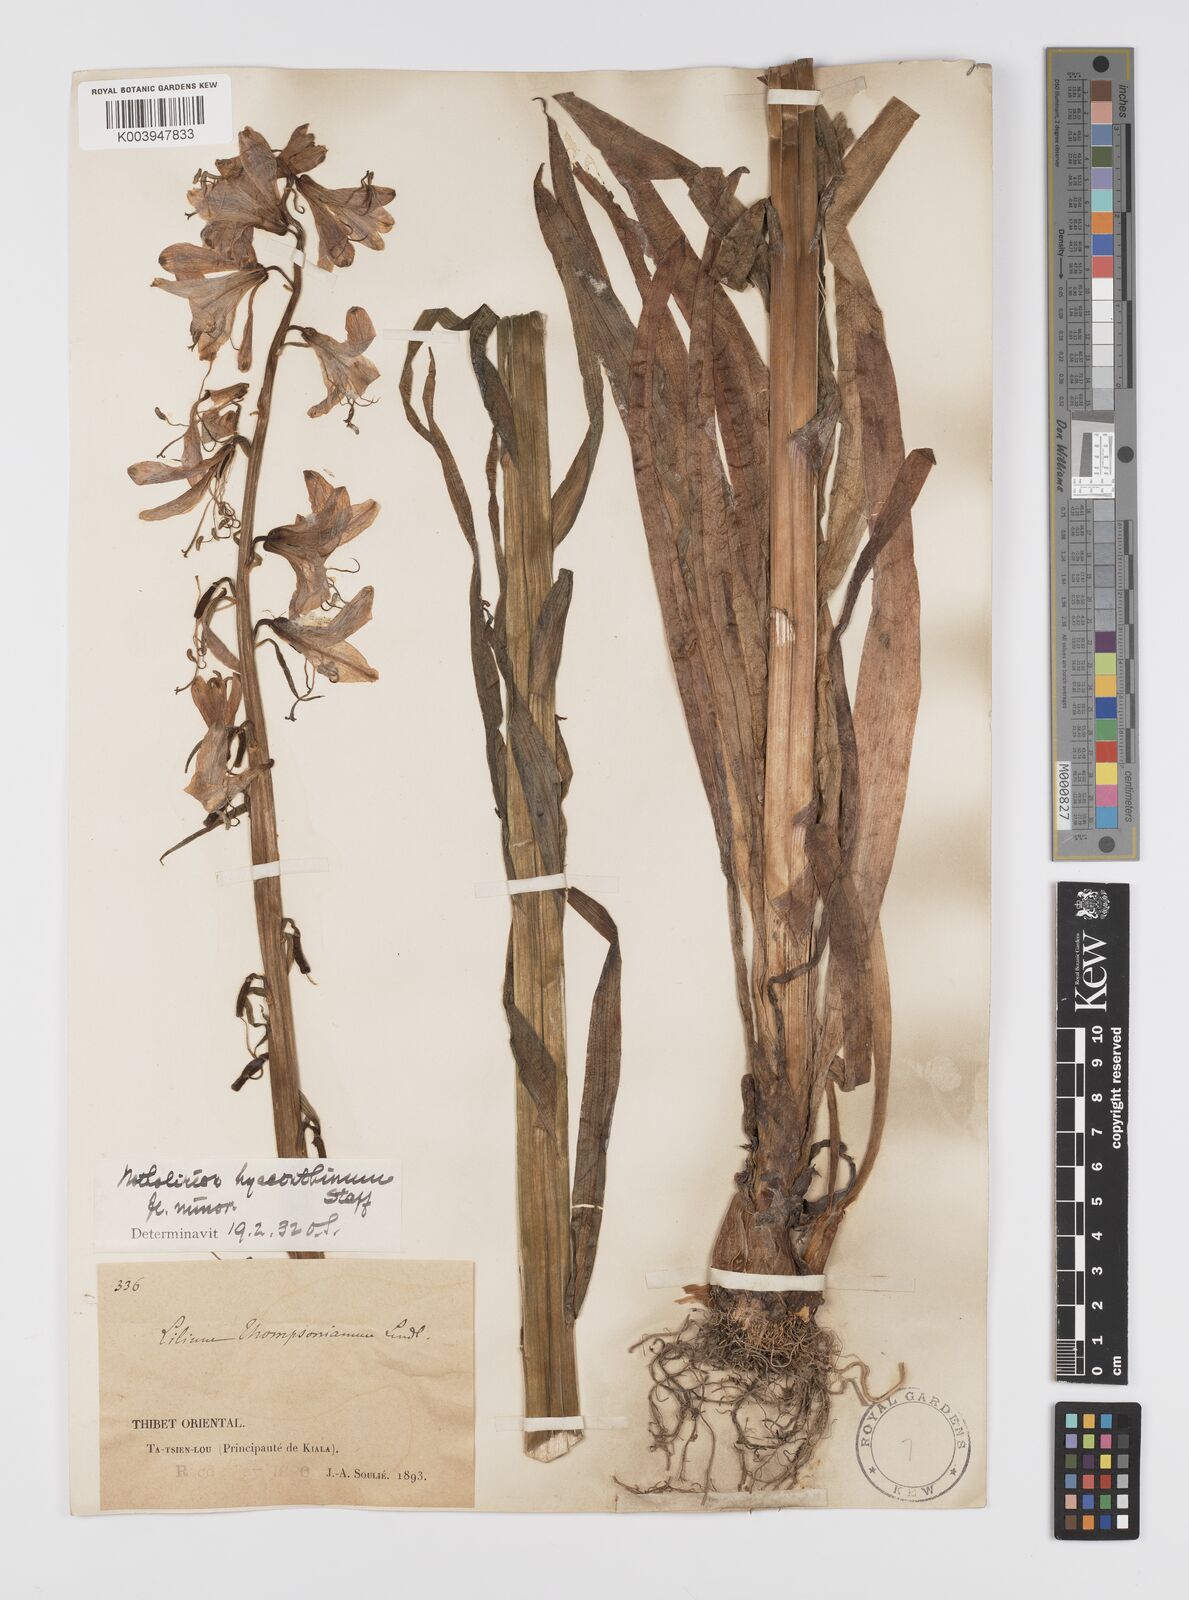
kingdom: Plantae
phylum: Tracheophyta
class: Liliopsida
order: Liliales
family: Liliaceae
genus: Notholirion
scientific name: Notholirion bulbuliferum
